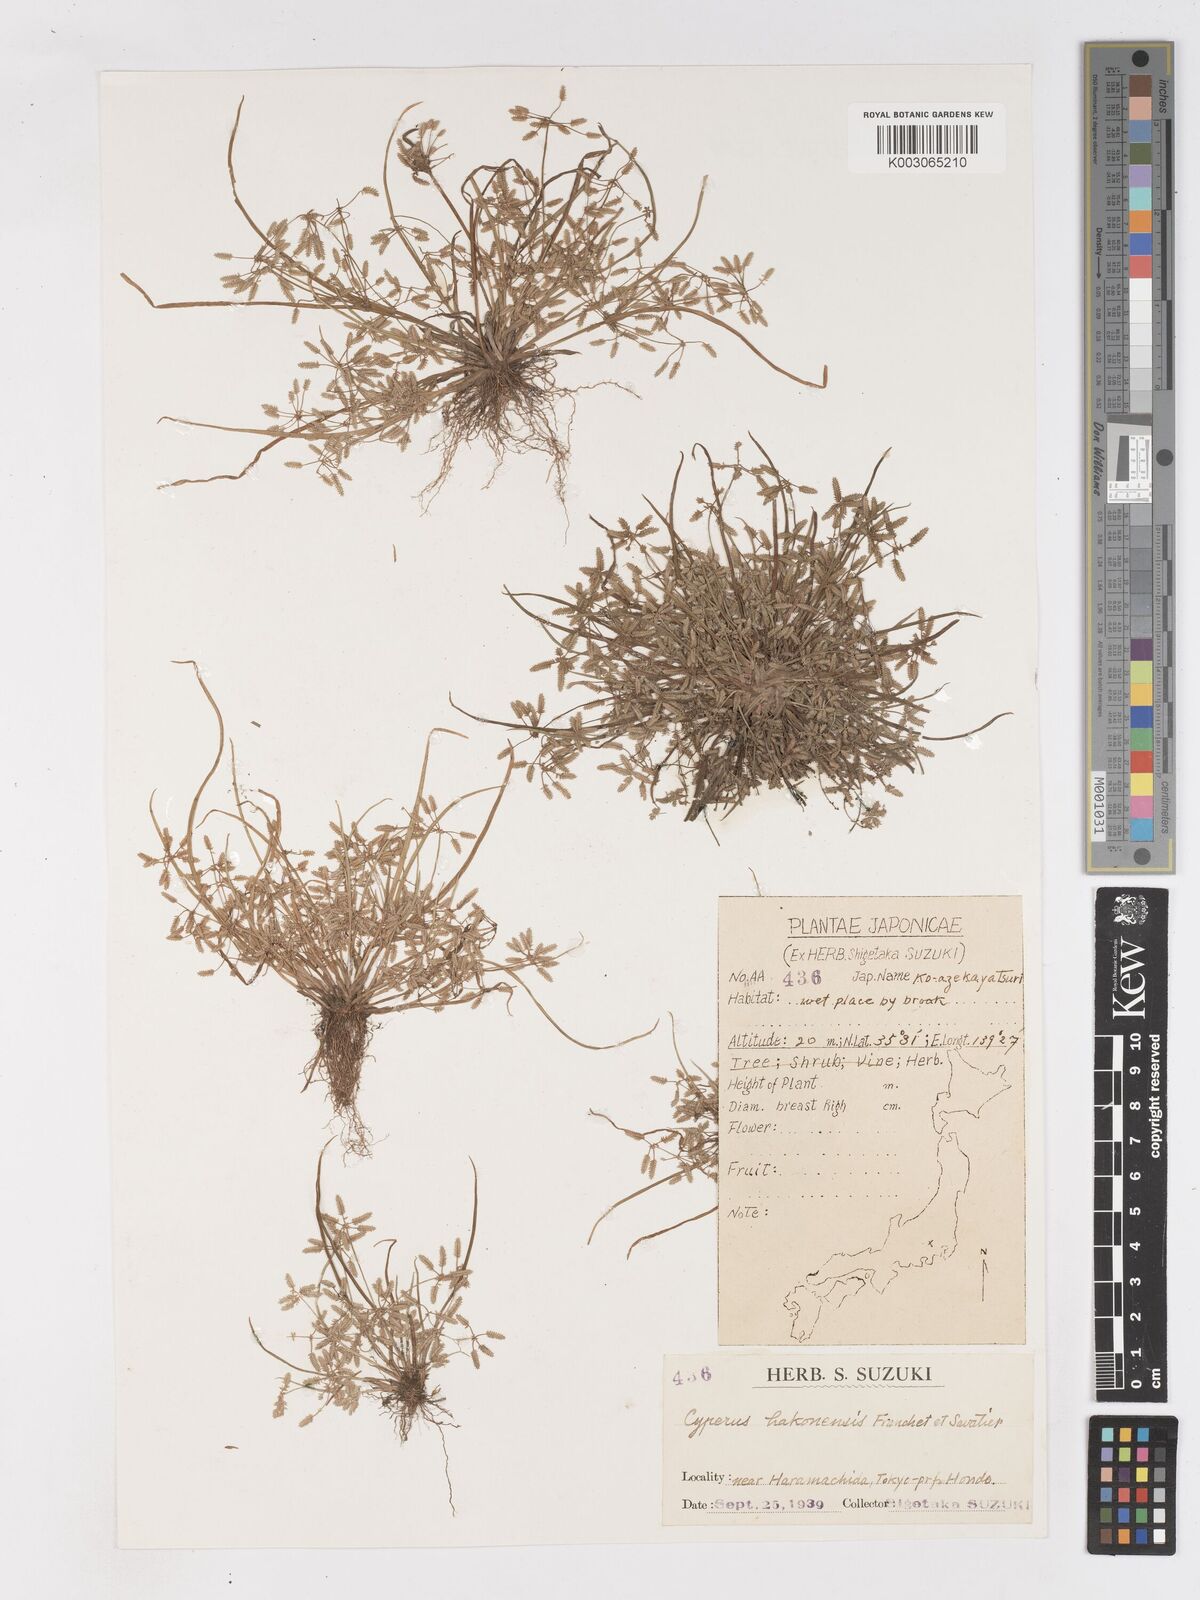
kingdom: Plantae
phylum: Tracheophyta
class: Liliopsida
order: Poales
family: Cyperaceae
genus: Cyperus
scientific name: Cyperus flaccidus
